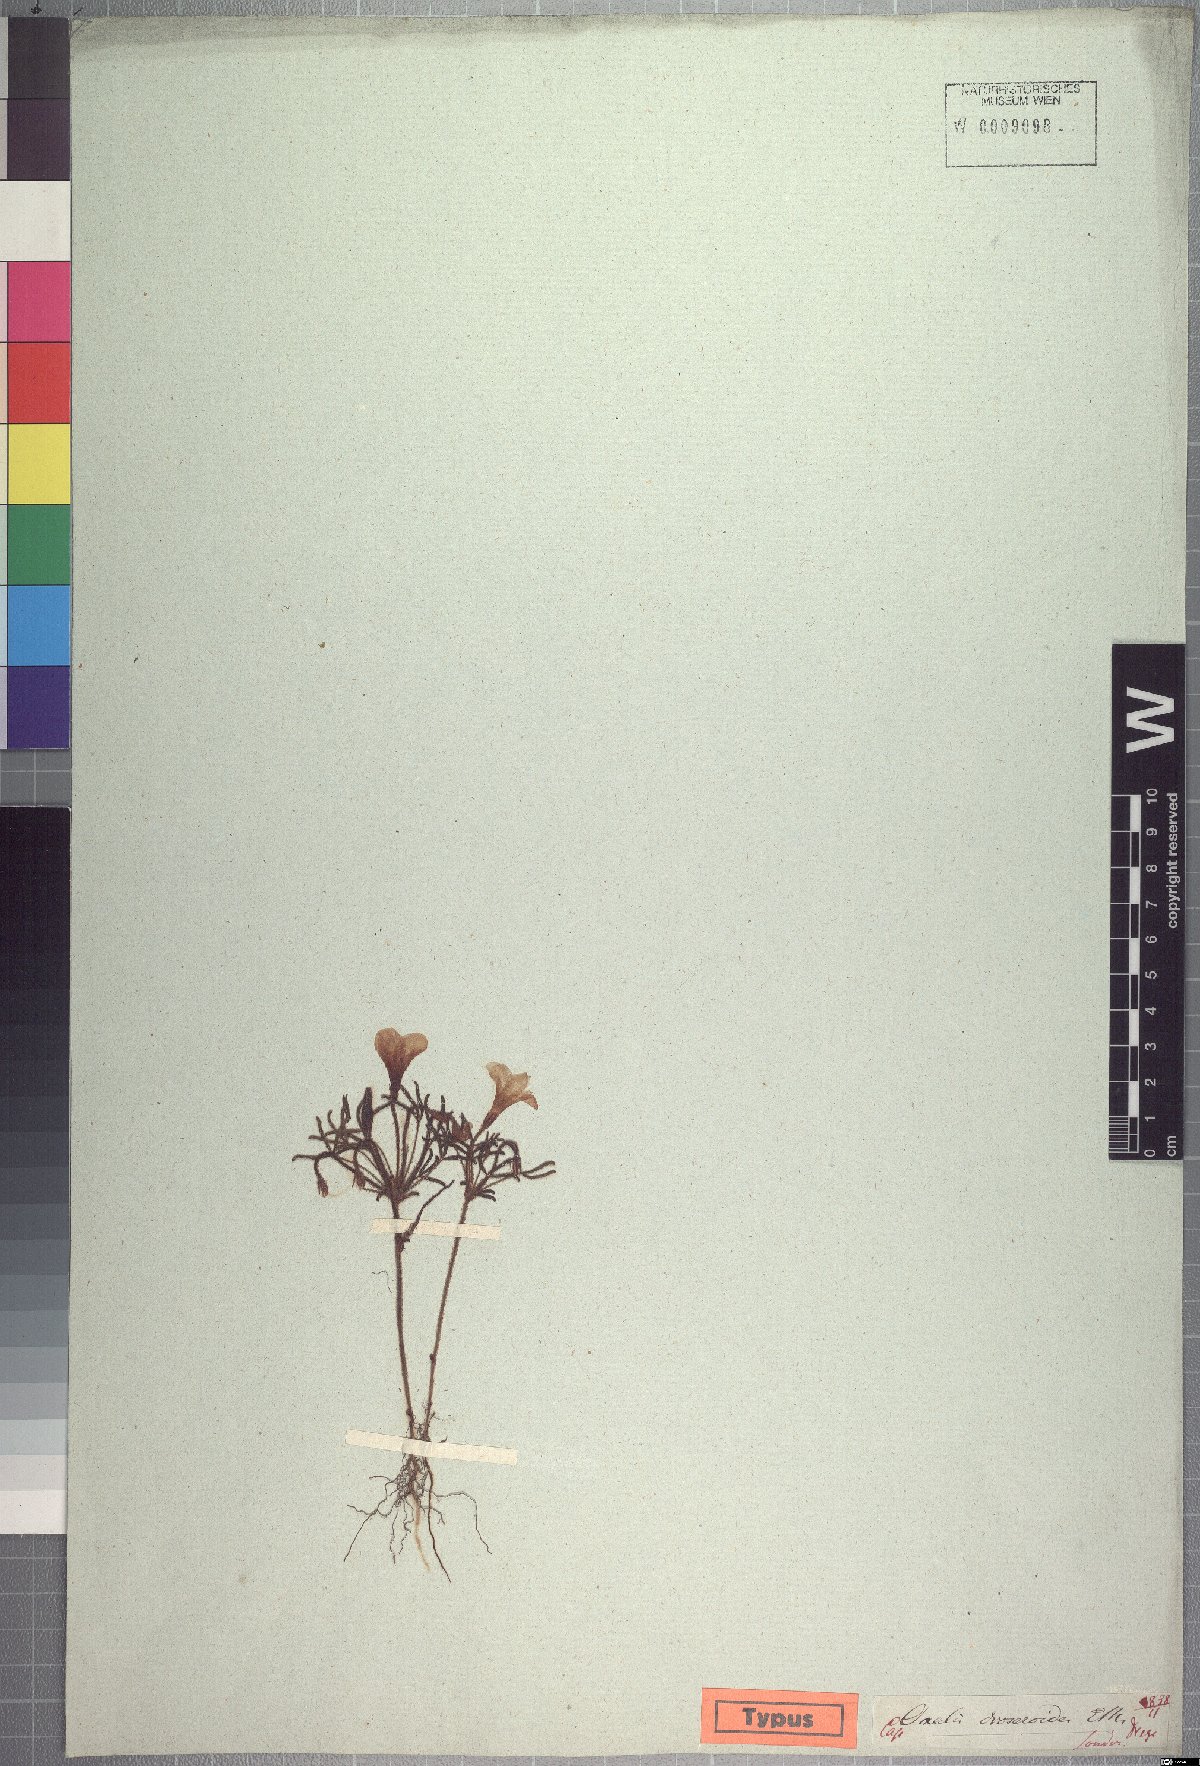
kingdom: Plantae
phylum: Tracheophyta
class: Magnoliopsida
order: Oxalidales
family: Oxalidaceae
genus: Oxalis
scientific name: Oxalis droseroides
